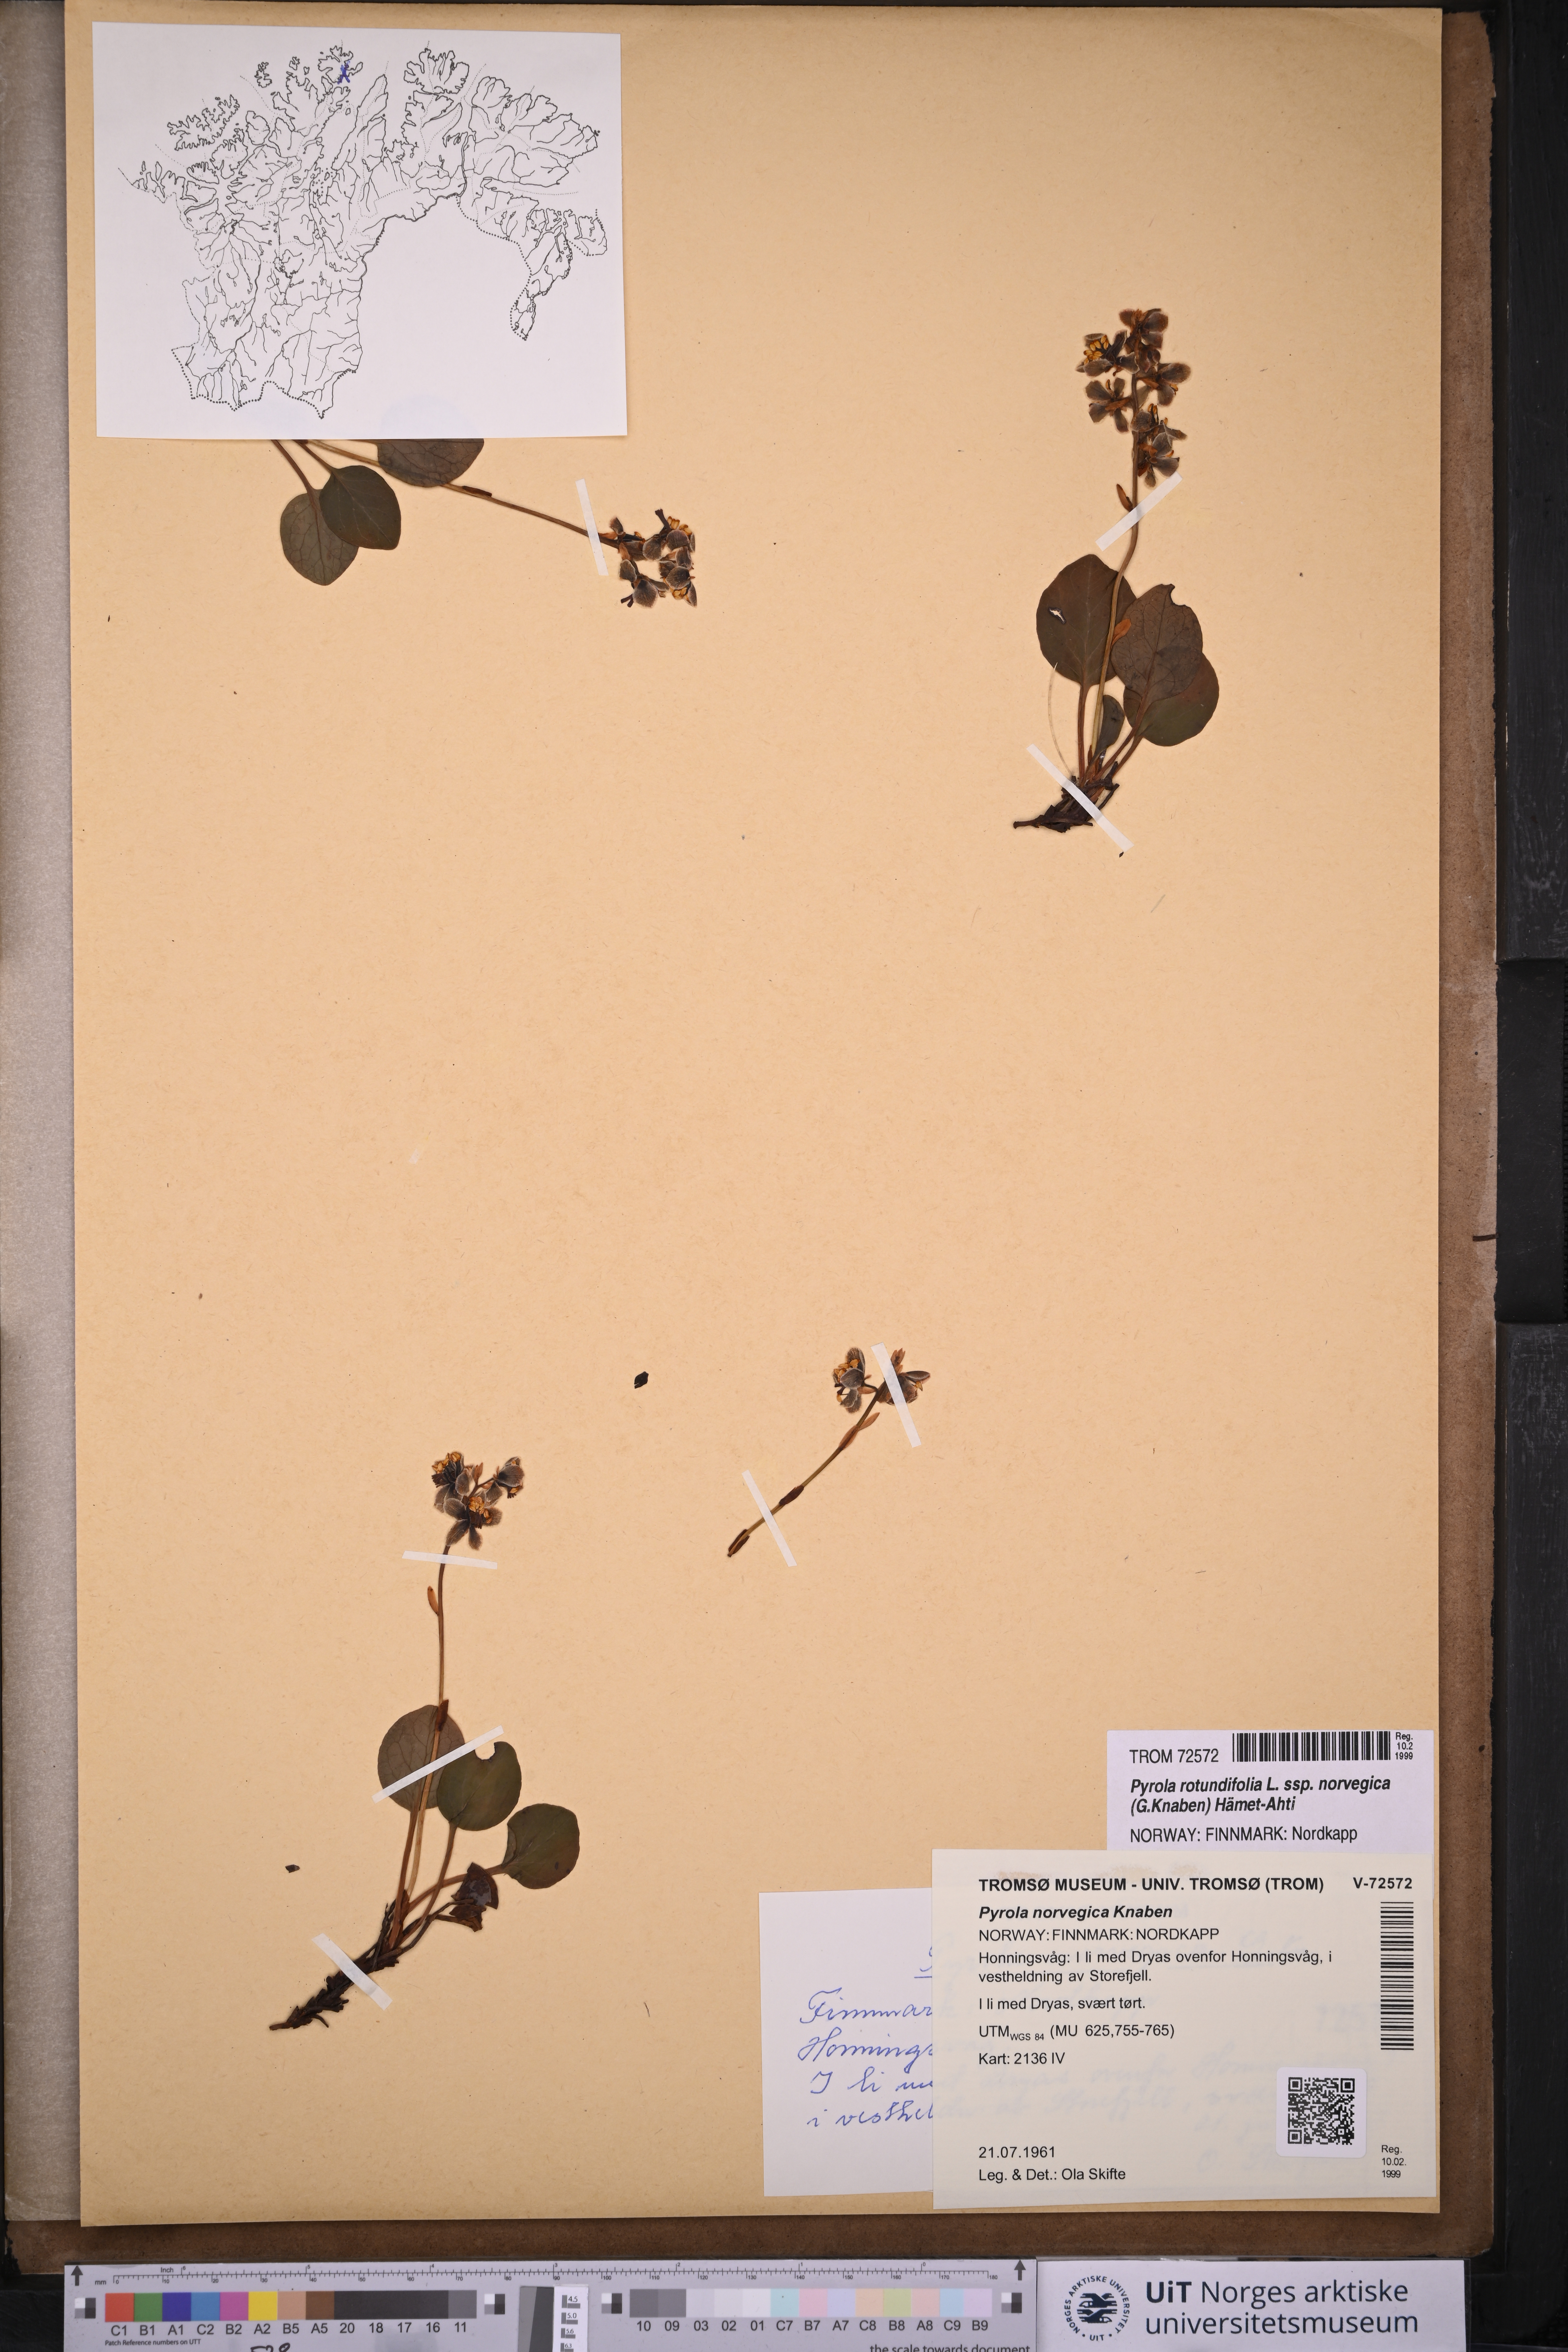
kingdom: Plantae
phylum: Tracheophyta
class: Magnoliopsida
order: Ericales
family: Ericaceae
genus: Pyrola
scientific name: Pyrola rotundifolia
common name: Round-leaved wintergreen
